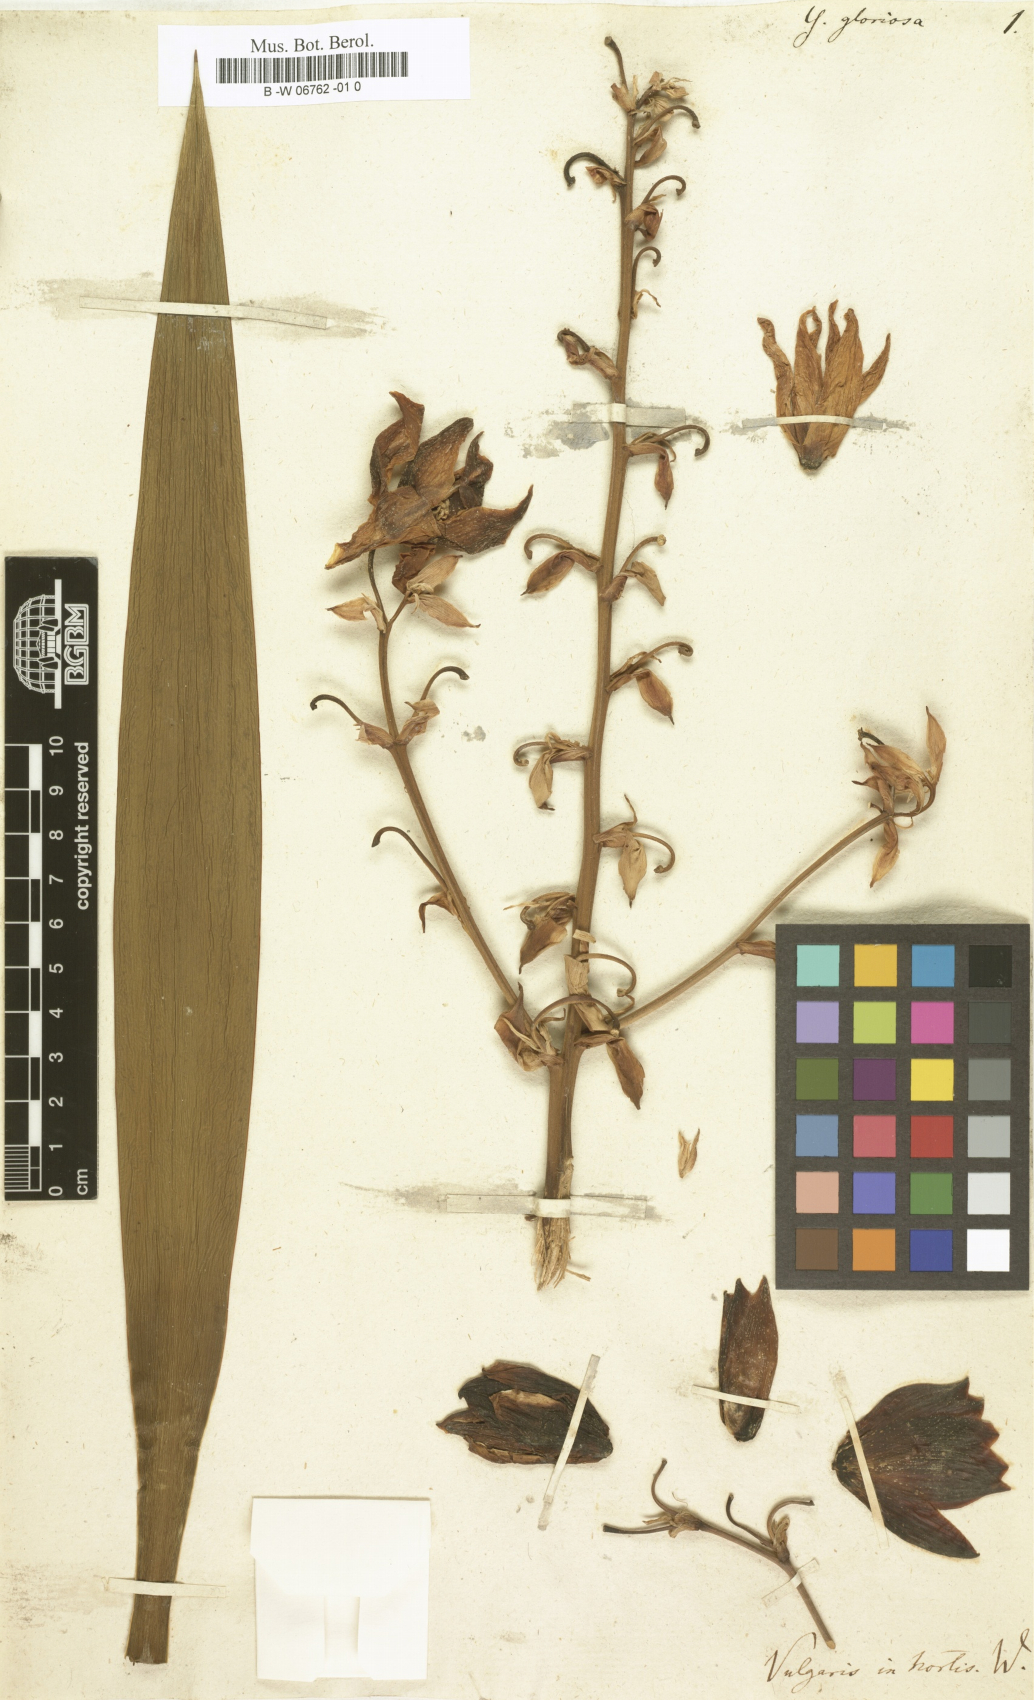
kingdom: Plantae
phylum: Tracheophyta
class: Liliopsida
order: Asparagales
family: Asparagaceae
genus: Yucca
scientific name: Yucca gloriosa
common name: Spanish-dagger
